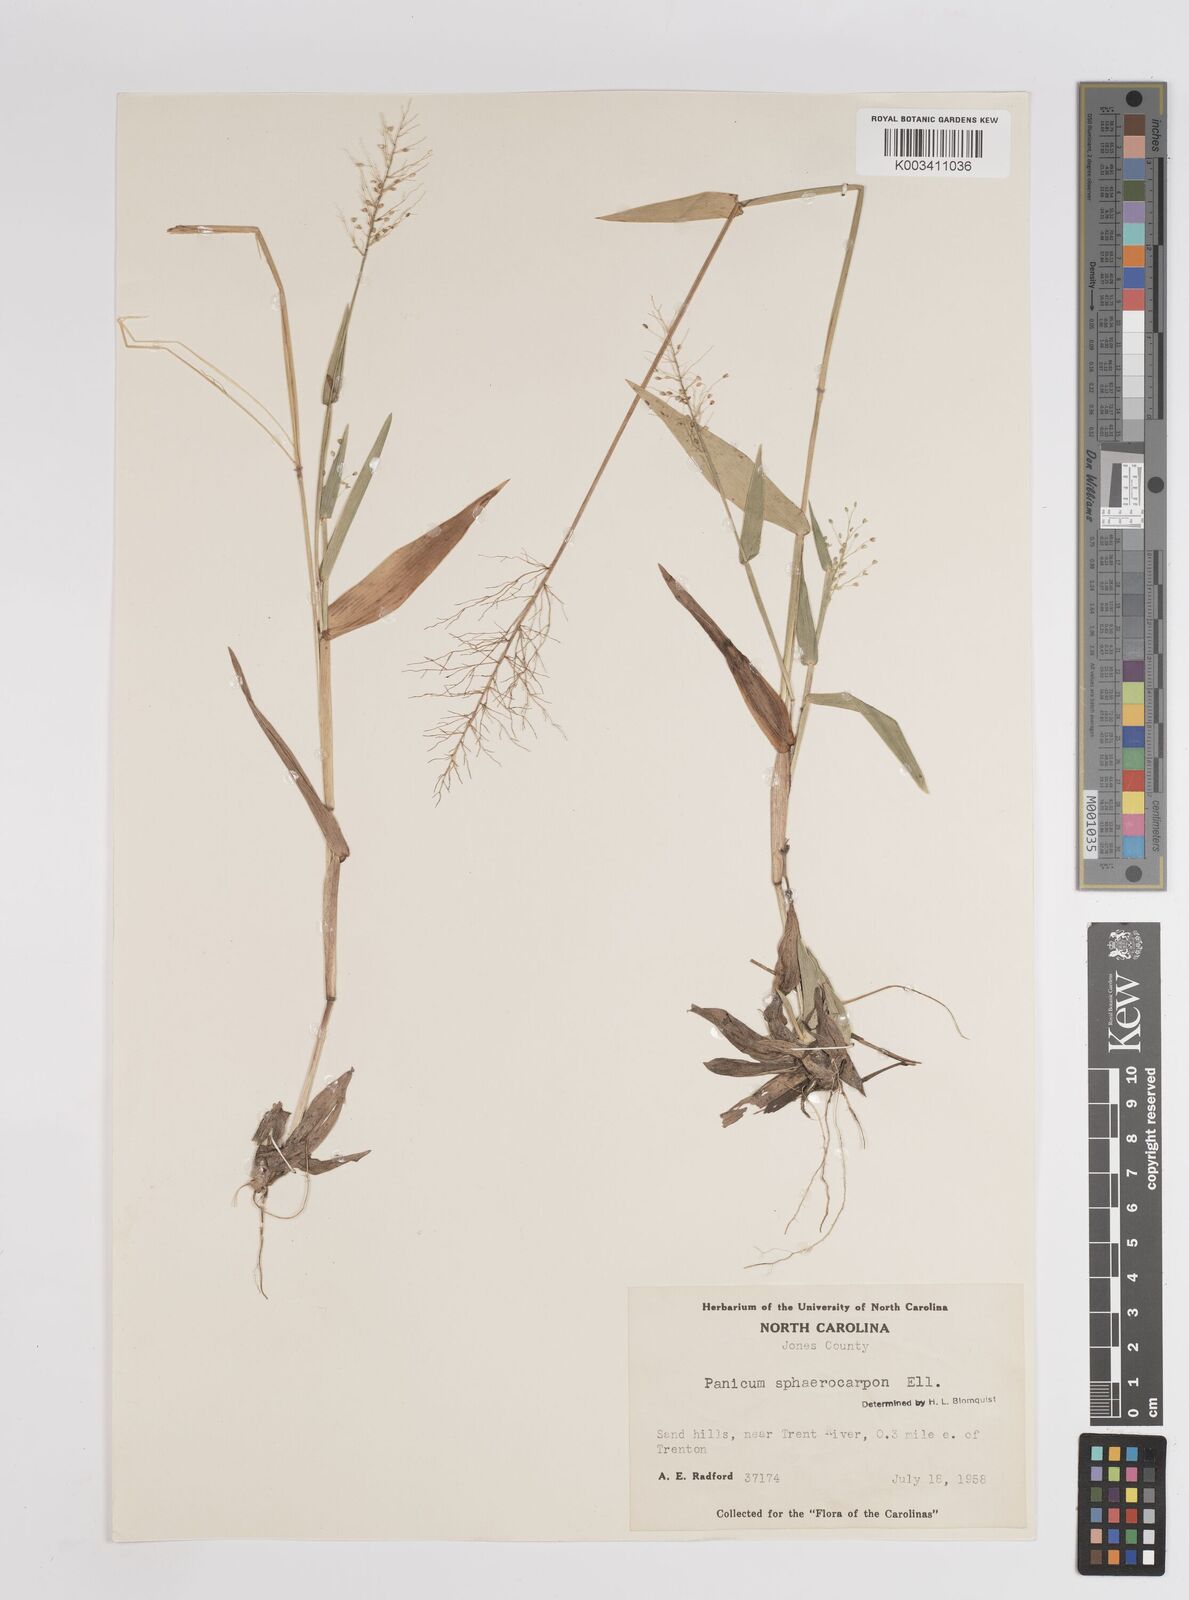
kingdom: Plantae
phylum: Tracheophyta
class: Liliopsida
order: Poales
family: Poaceae
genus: Setaria
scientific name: Setaria tenax
